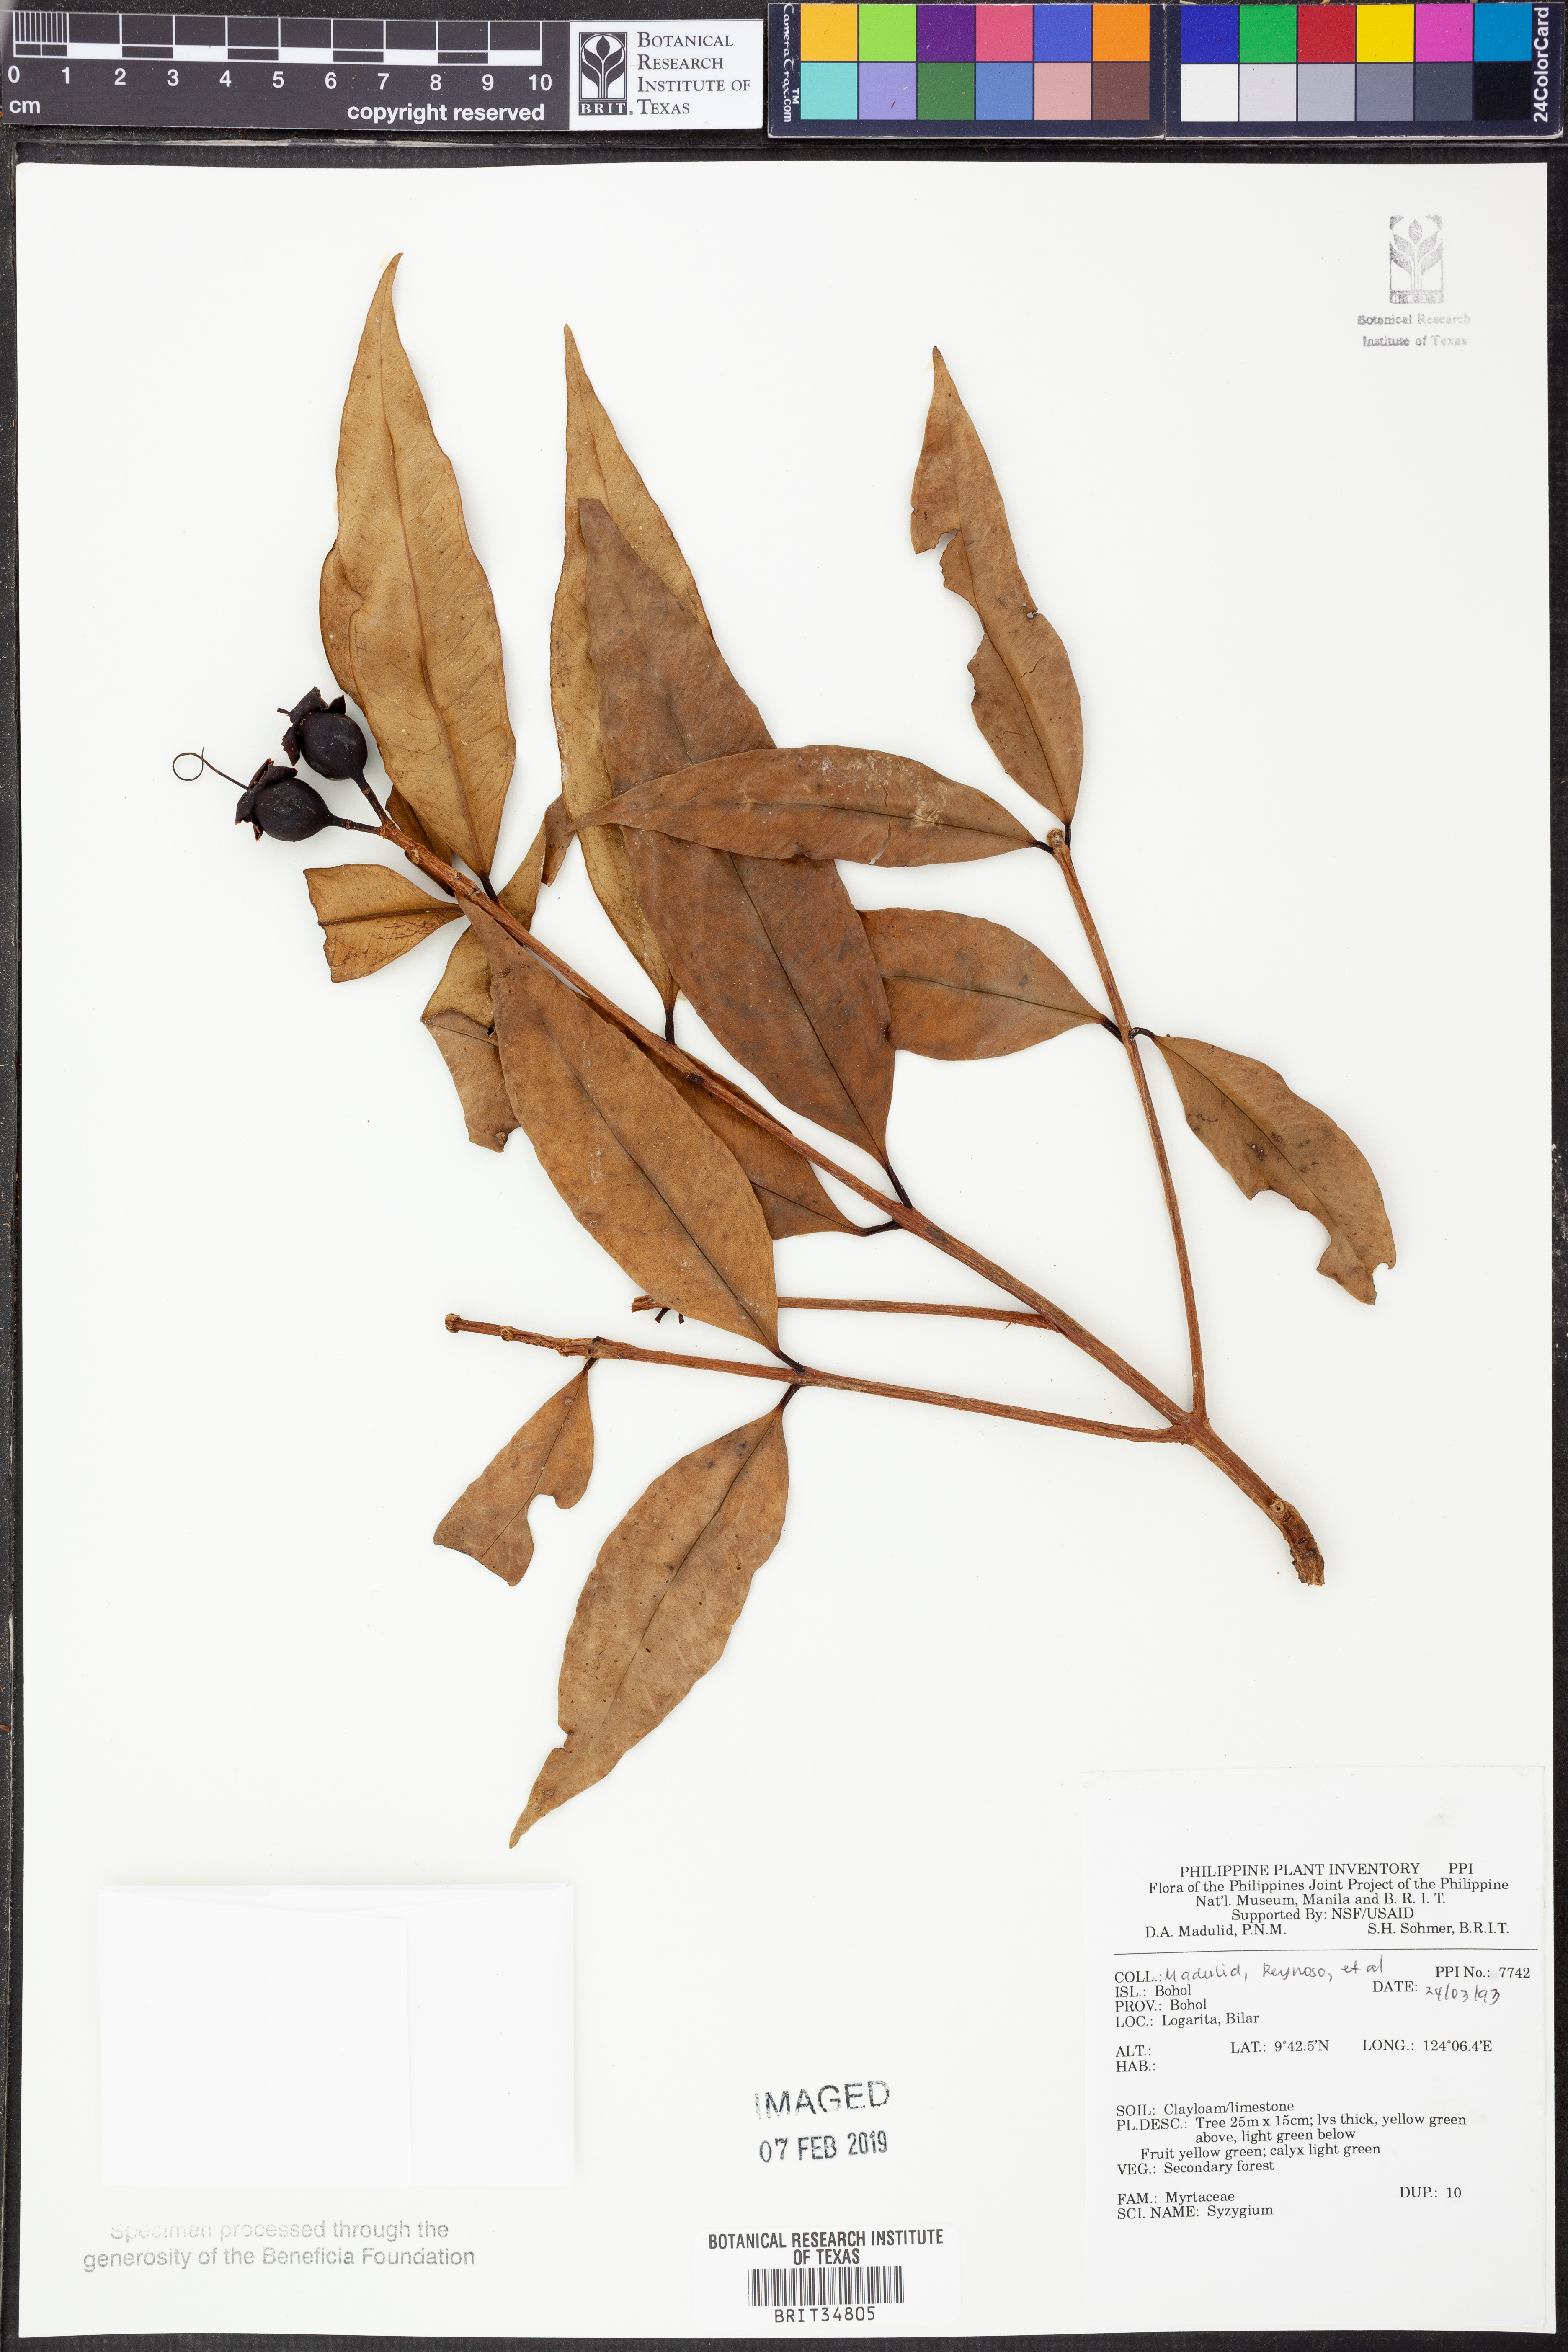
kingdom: Plantae
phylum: Tracheophyta
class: Magnoliopsida
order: Myrtales
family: Myrtaceae
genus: Syzygium
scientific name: Syzygium
